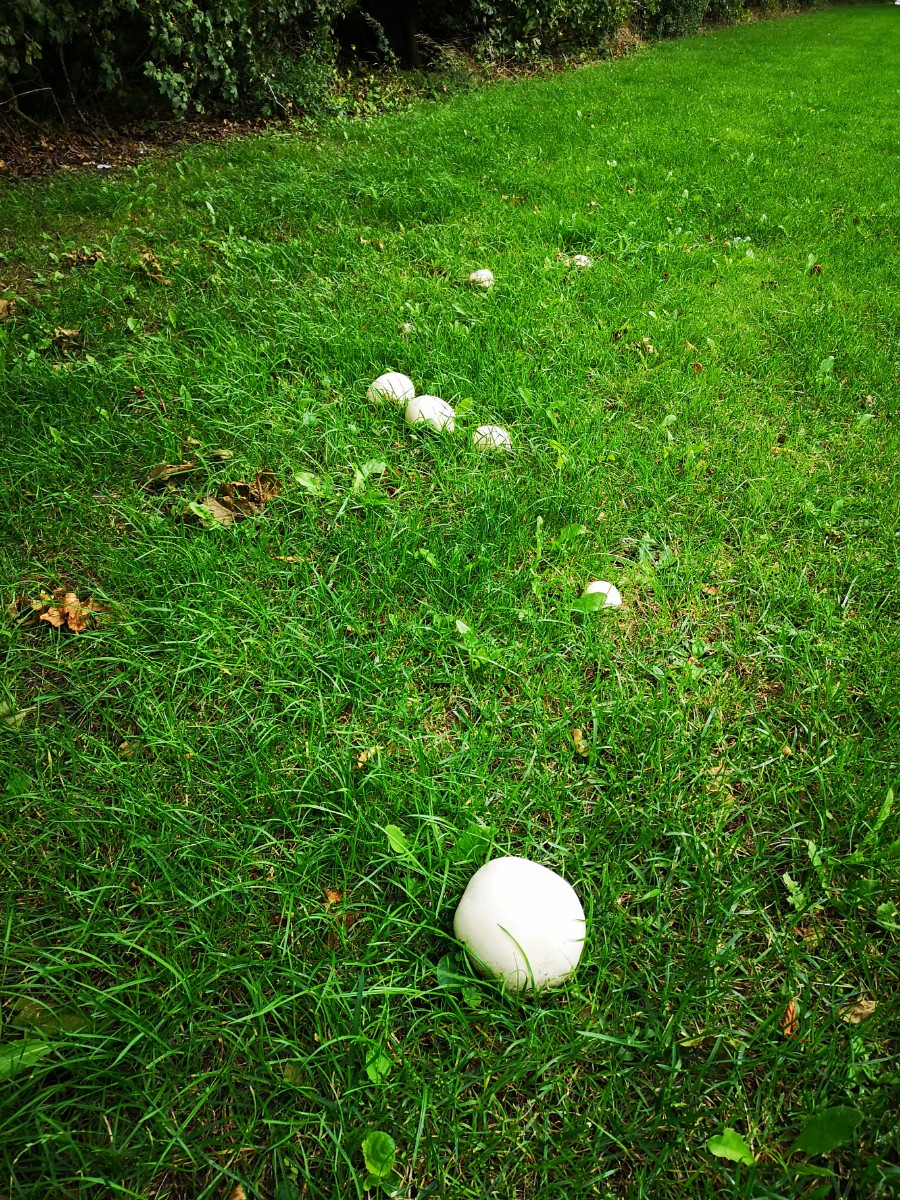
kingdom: Fungi
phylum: Basidiomycota
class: Agaricomycetes
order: Agaricales
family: Lycoperdaceae
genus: Calvatia
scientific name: Calvatia gigantea
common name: kæmpestøvbold
